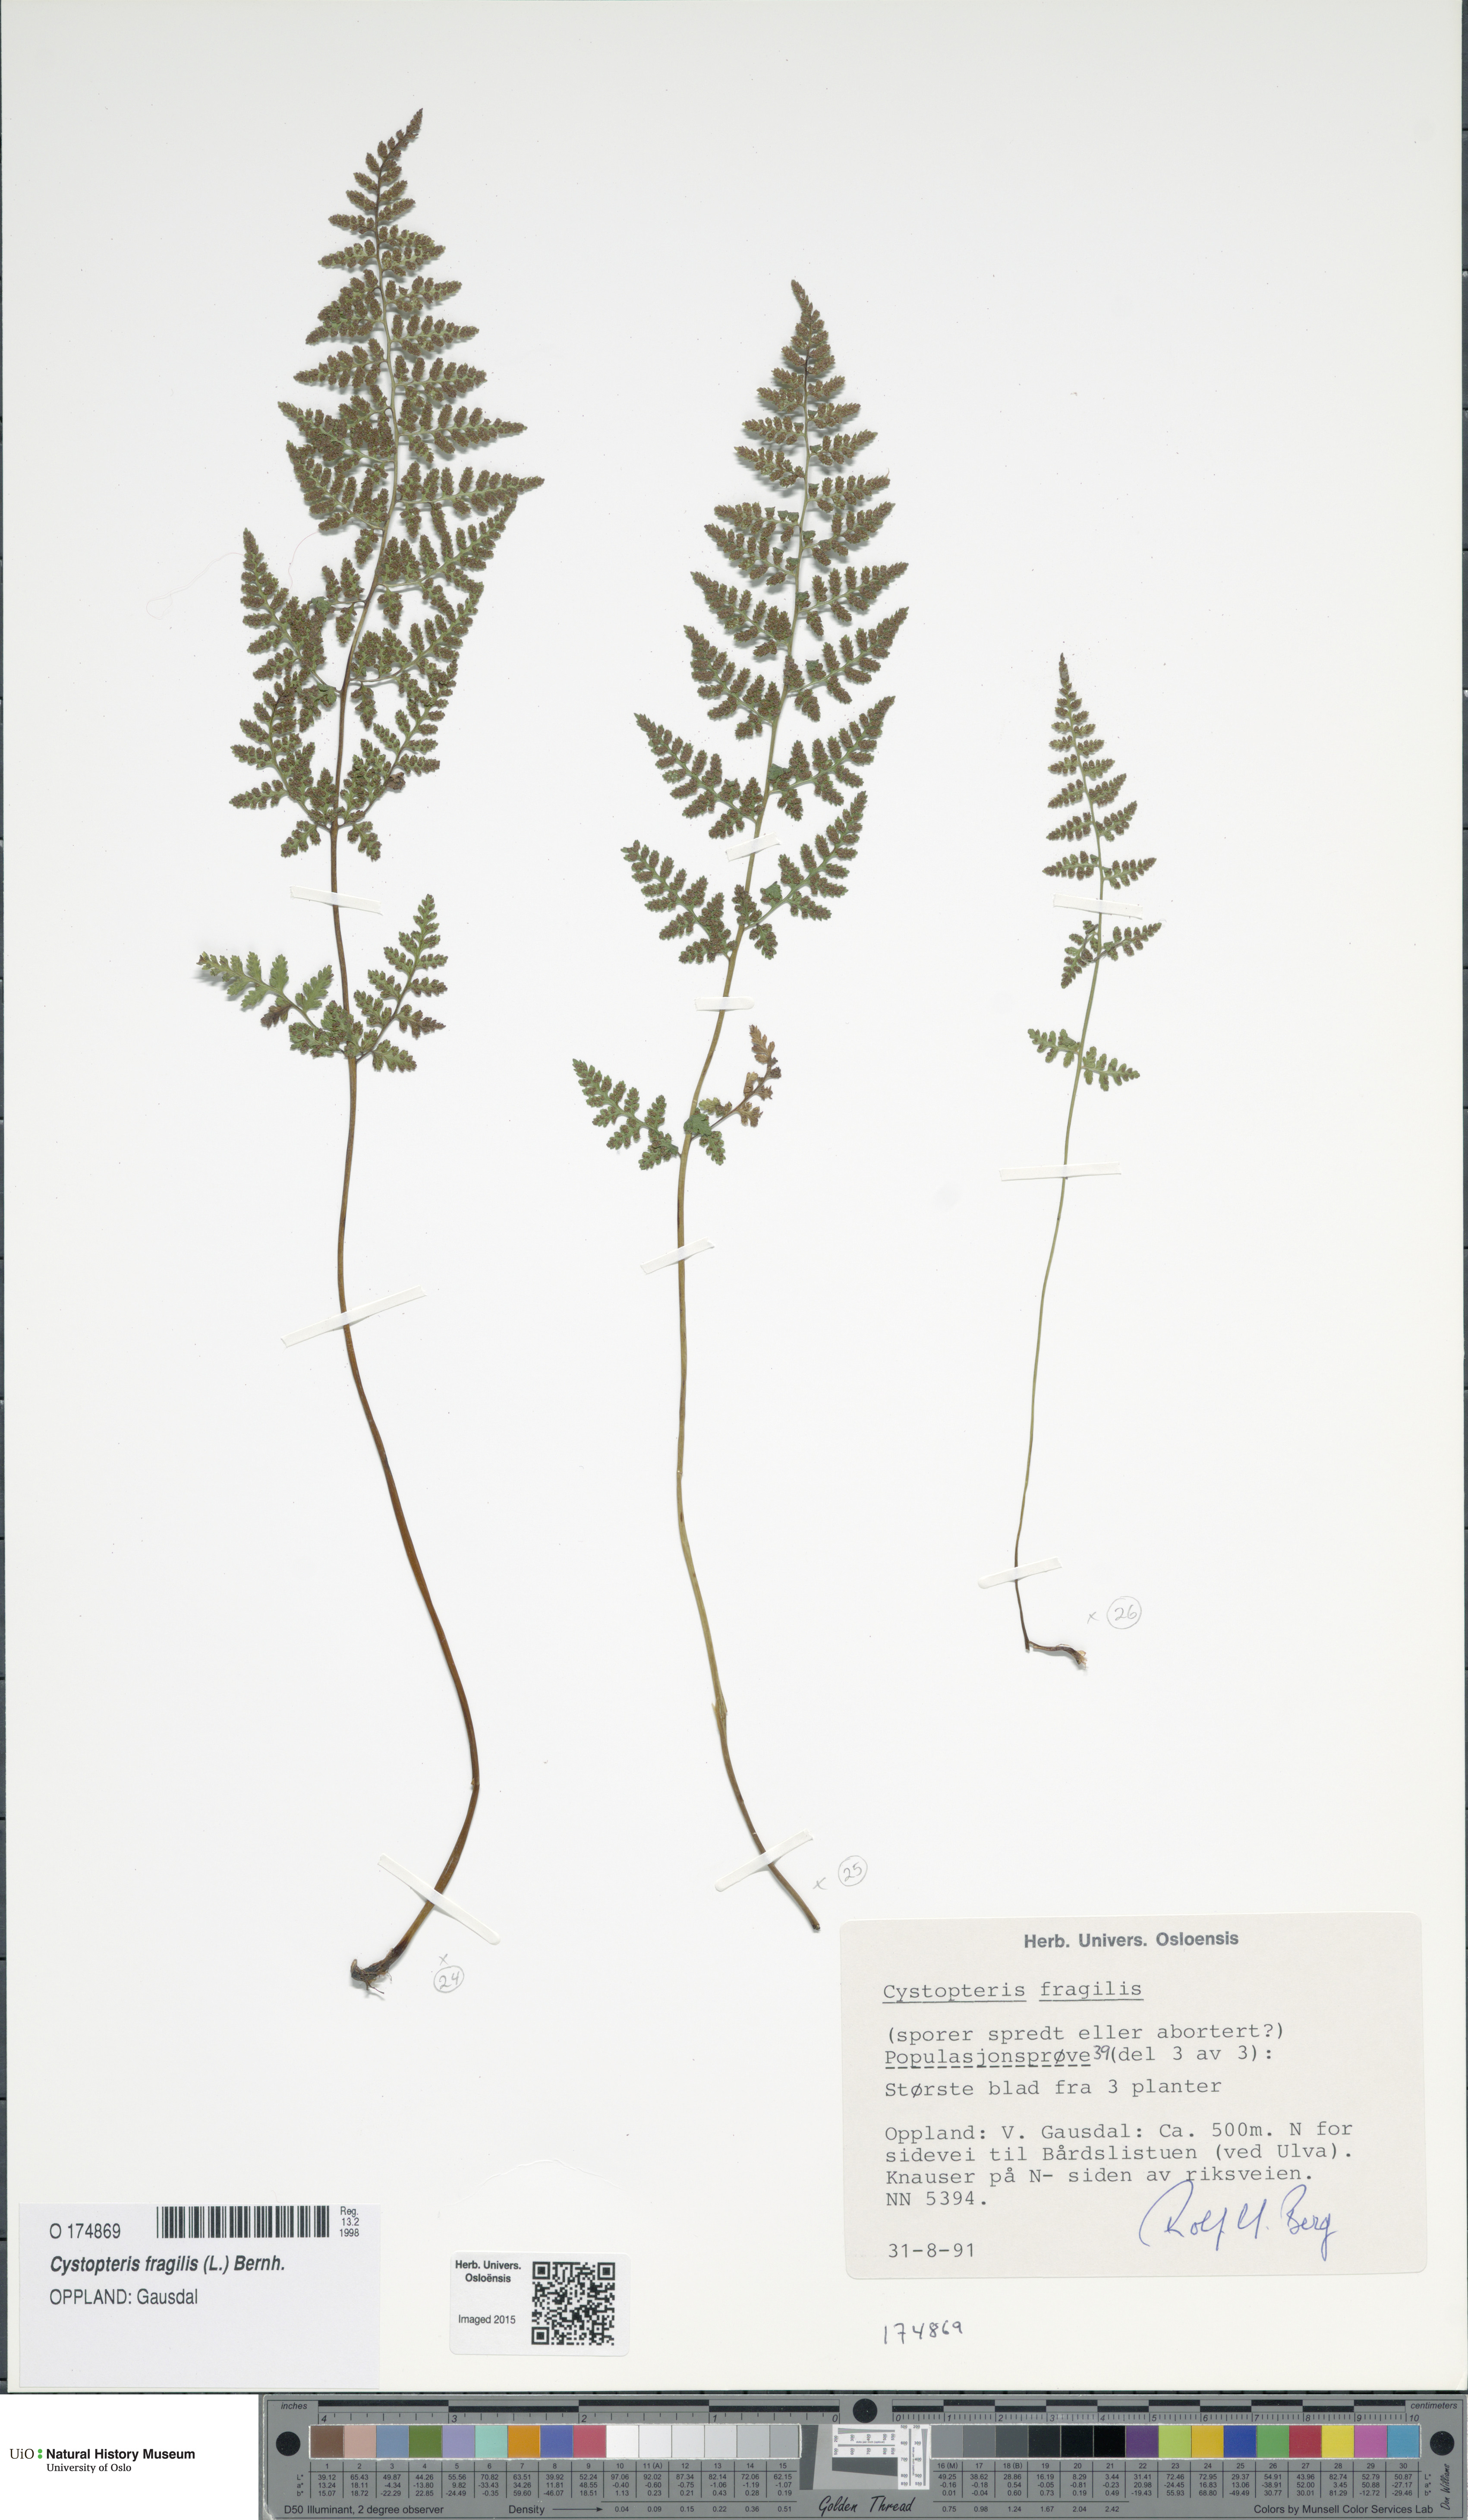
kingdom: Plantae
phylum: Tracheophyta
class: Polypodiopsida
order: Polypodiales
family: Cystopteridaceae
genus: Cystopteris
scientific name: Cystopteris fragilis
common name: Brittle bladder fern
